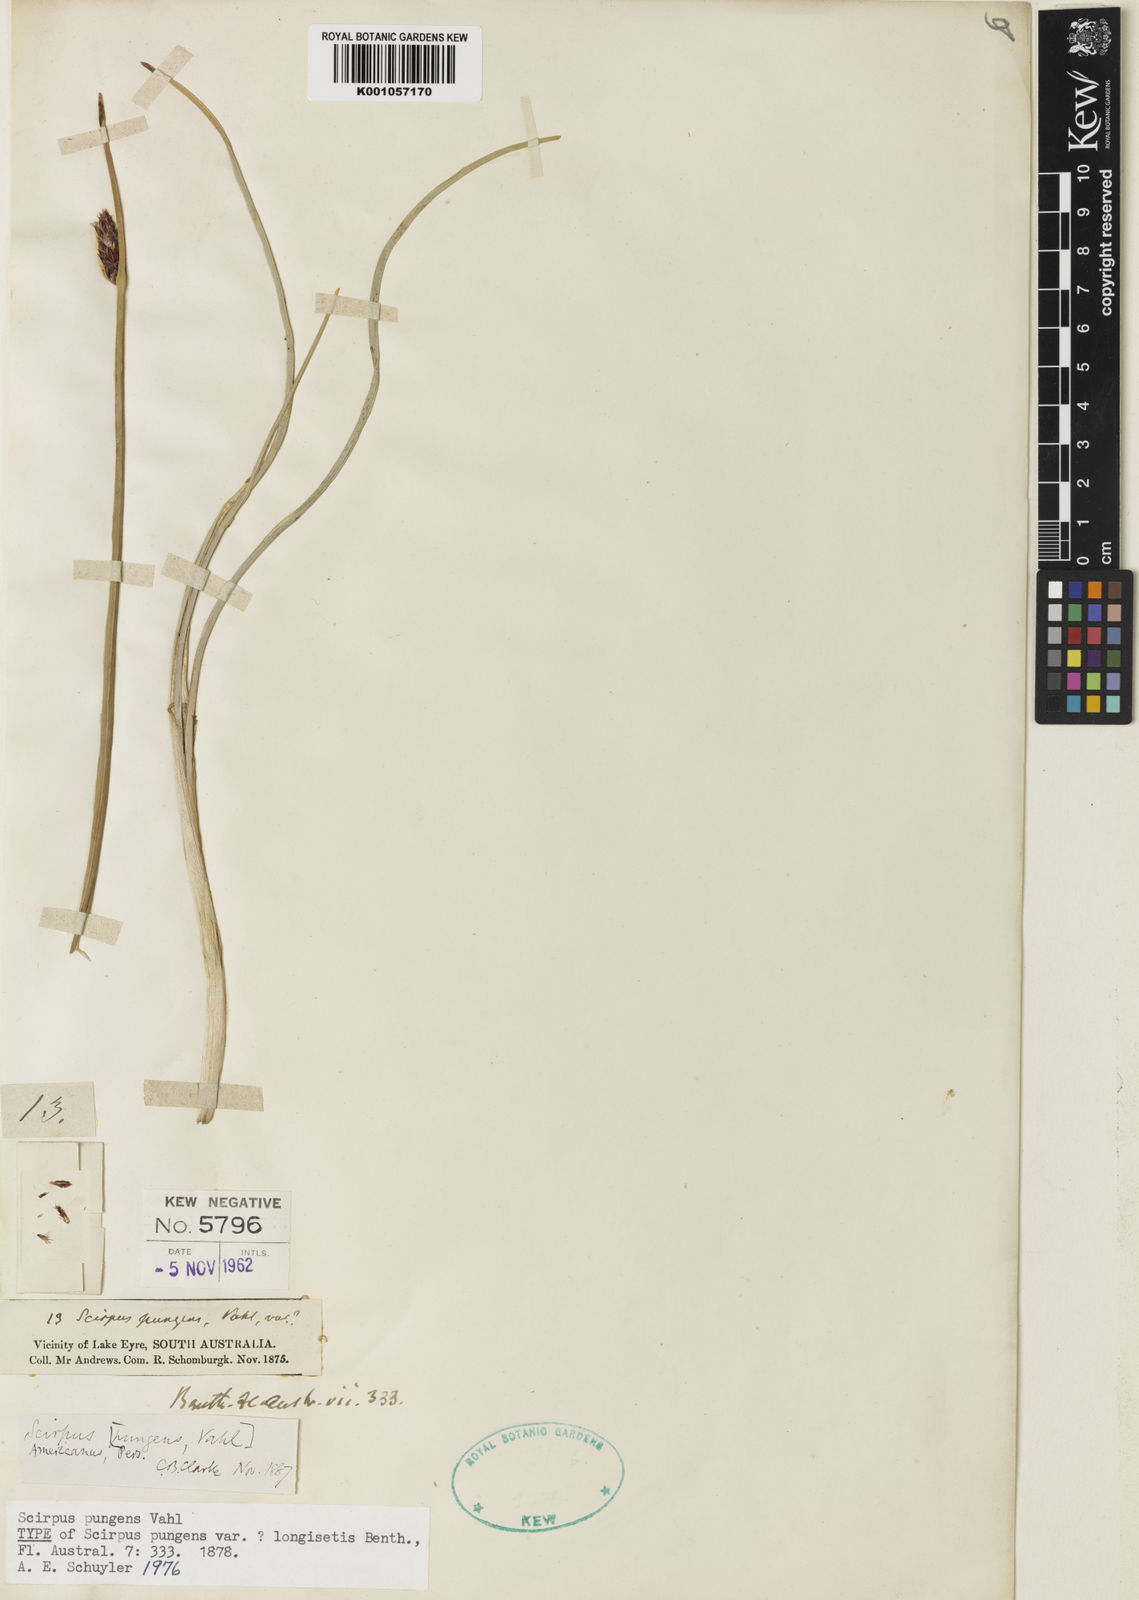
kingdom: Plantae
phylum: Tracheophyta
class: Liliopsida
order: Poales
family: Cyperaceae
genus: Schoenoplectus
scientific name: Schoenoplectus pungens
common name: Sharp club-rush
